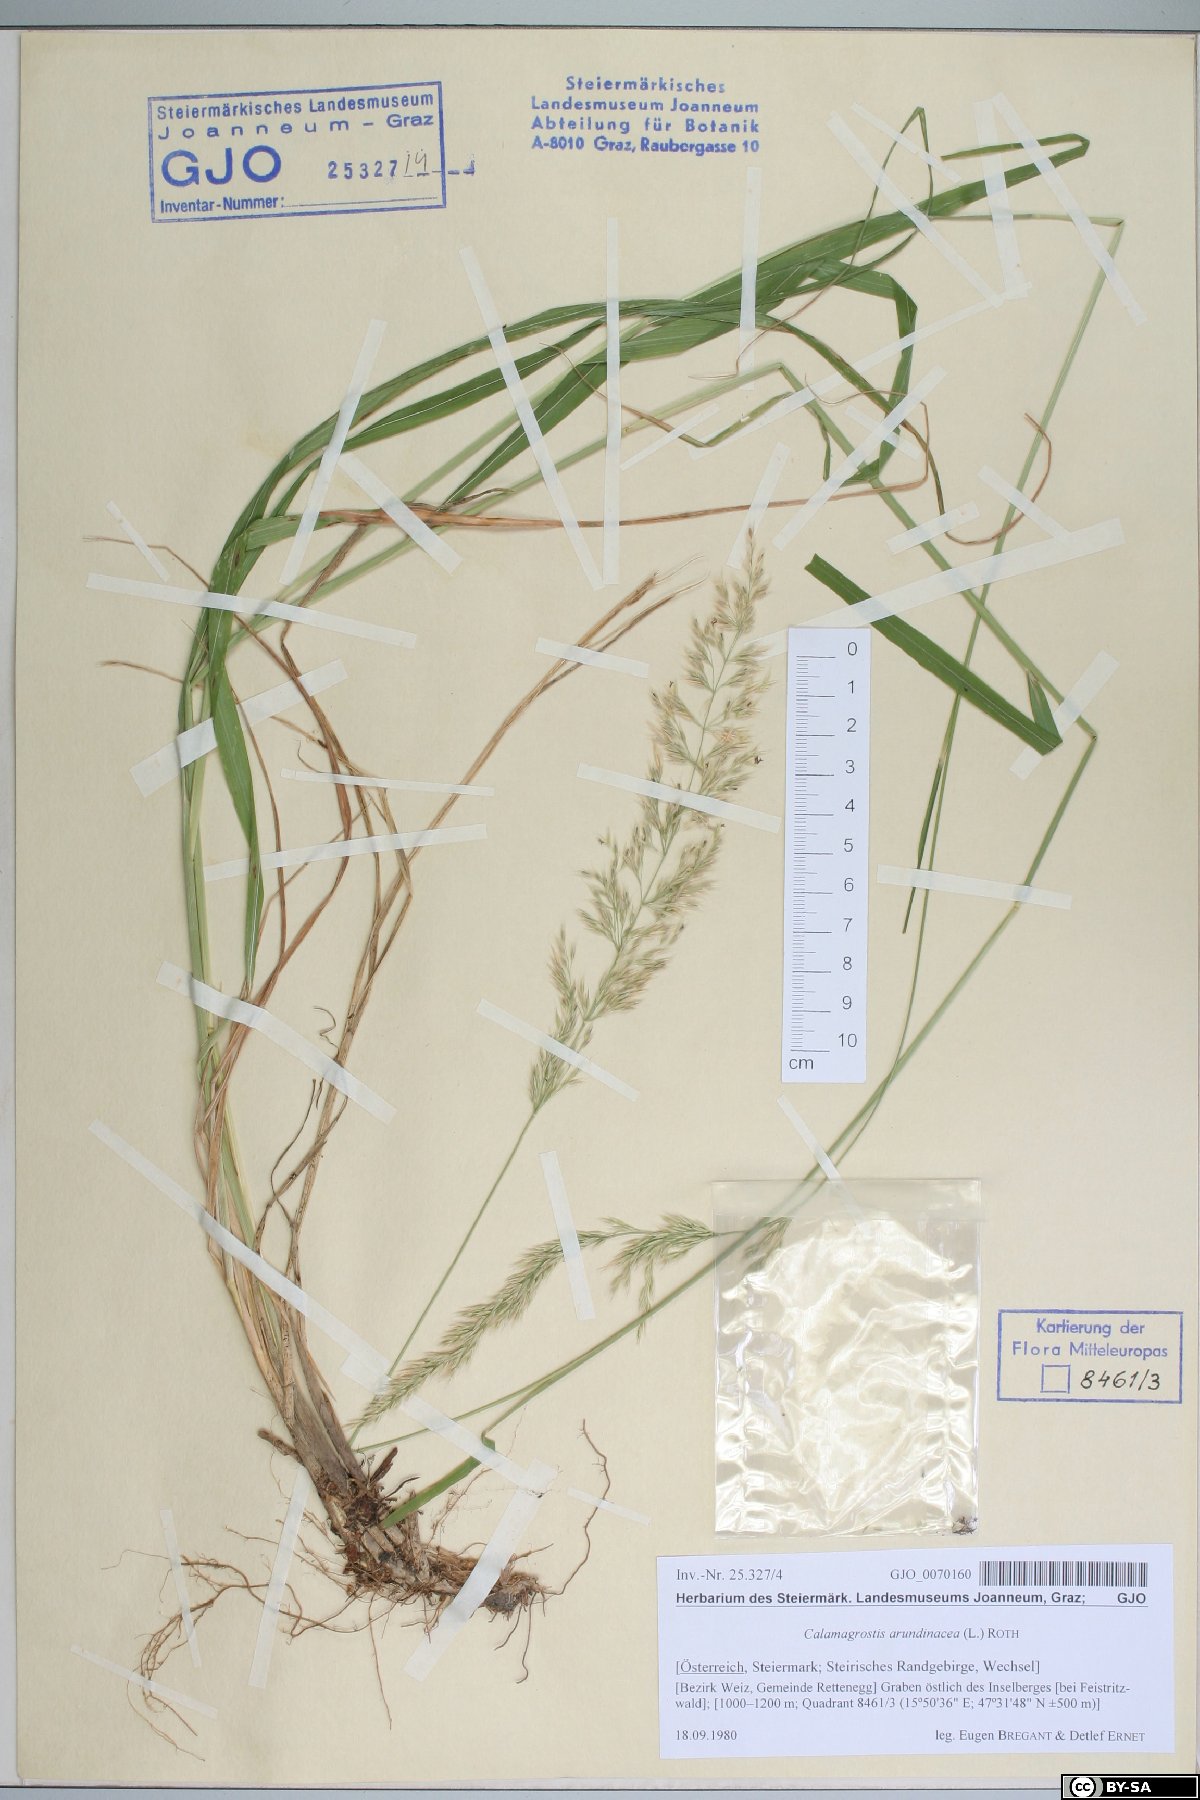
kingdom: Plantae
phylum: Tracheophyta
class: Liliopsida
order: Poales
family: Poaceae
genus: Calamagrostis
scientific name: Calamagrostis arundinacea
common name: Metskastik
